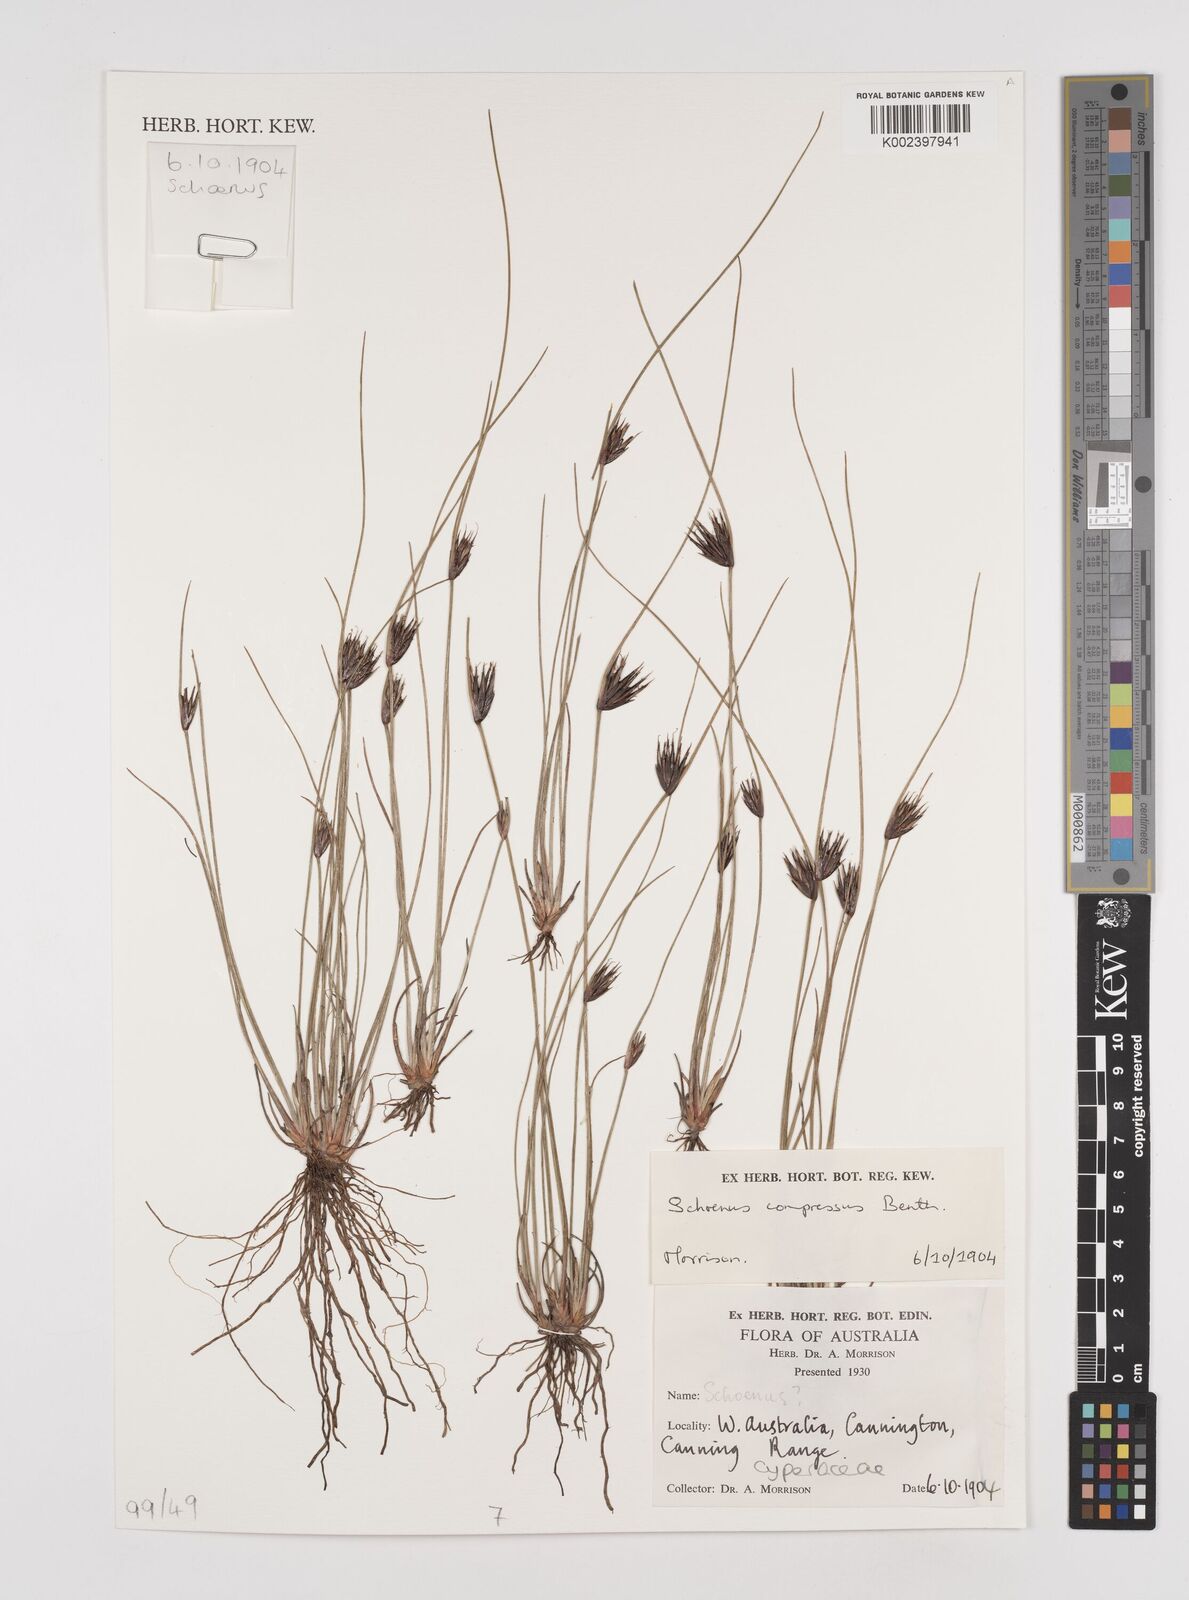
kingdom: Plantae
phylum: Tracheophyta
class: Liliopsida
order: Poales
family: Cyperaceae
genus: Schoenus
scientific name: Schoenus benthamii
